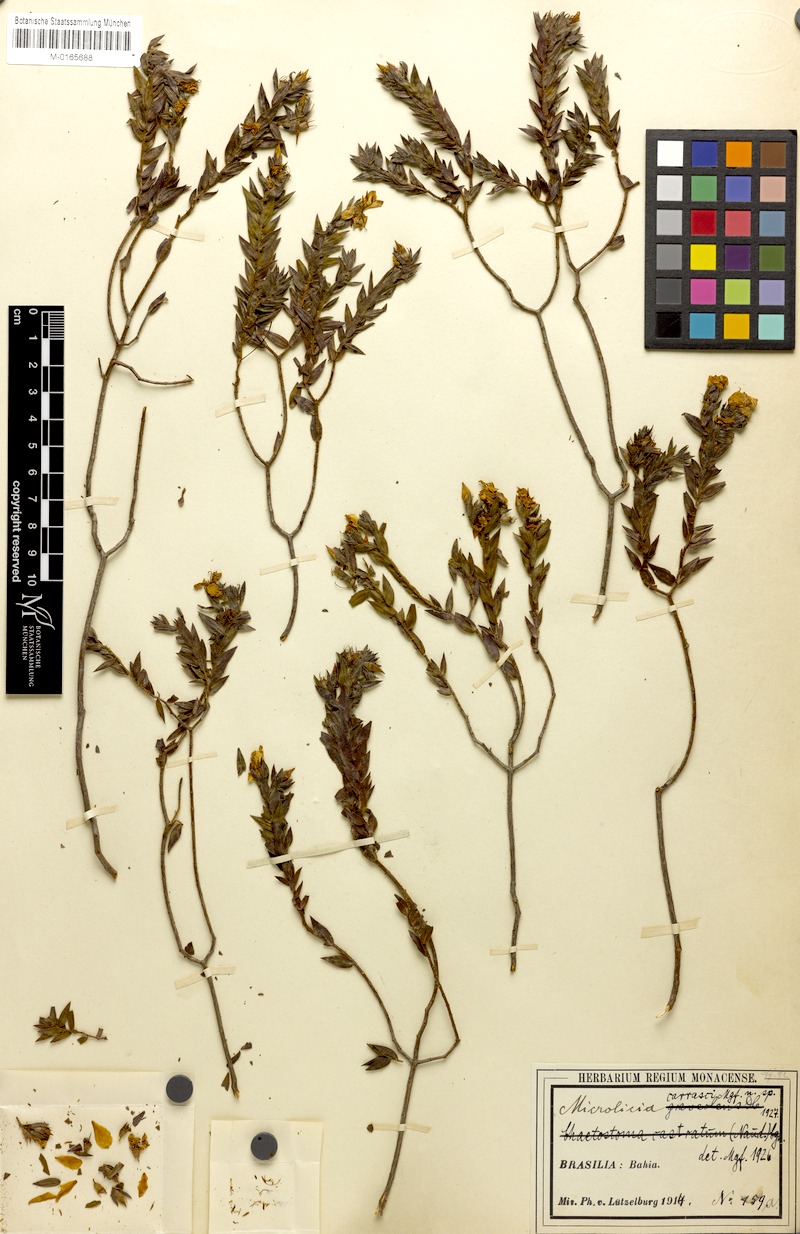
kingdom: Plantae
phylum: Tracheophyta
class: Magnoliopsida
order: Myrtales
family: Melastomataceae
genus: Microlicia
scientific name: Microlicia luetzelburgii
